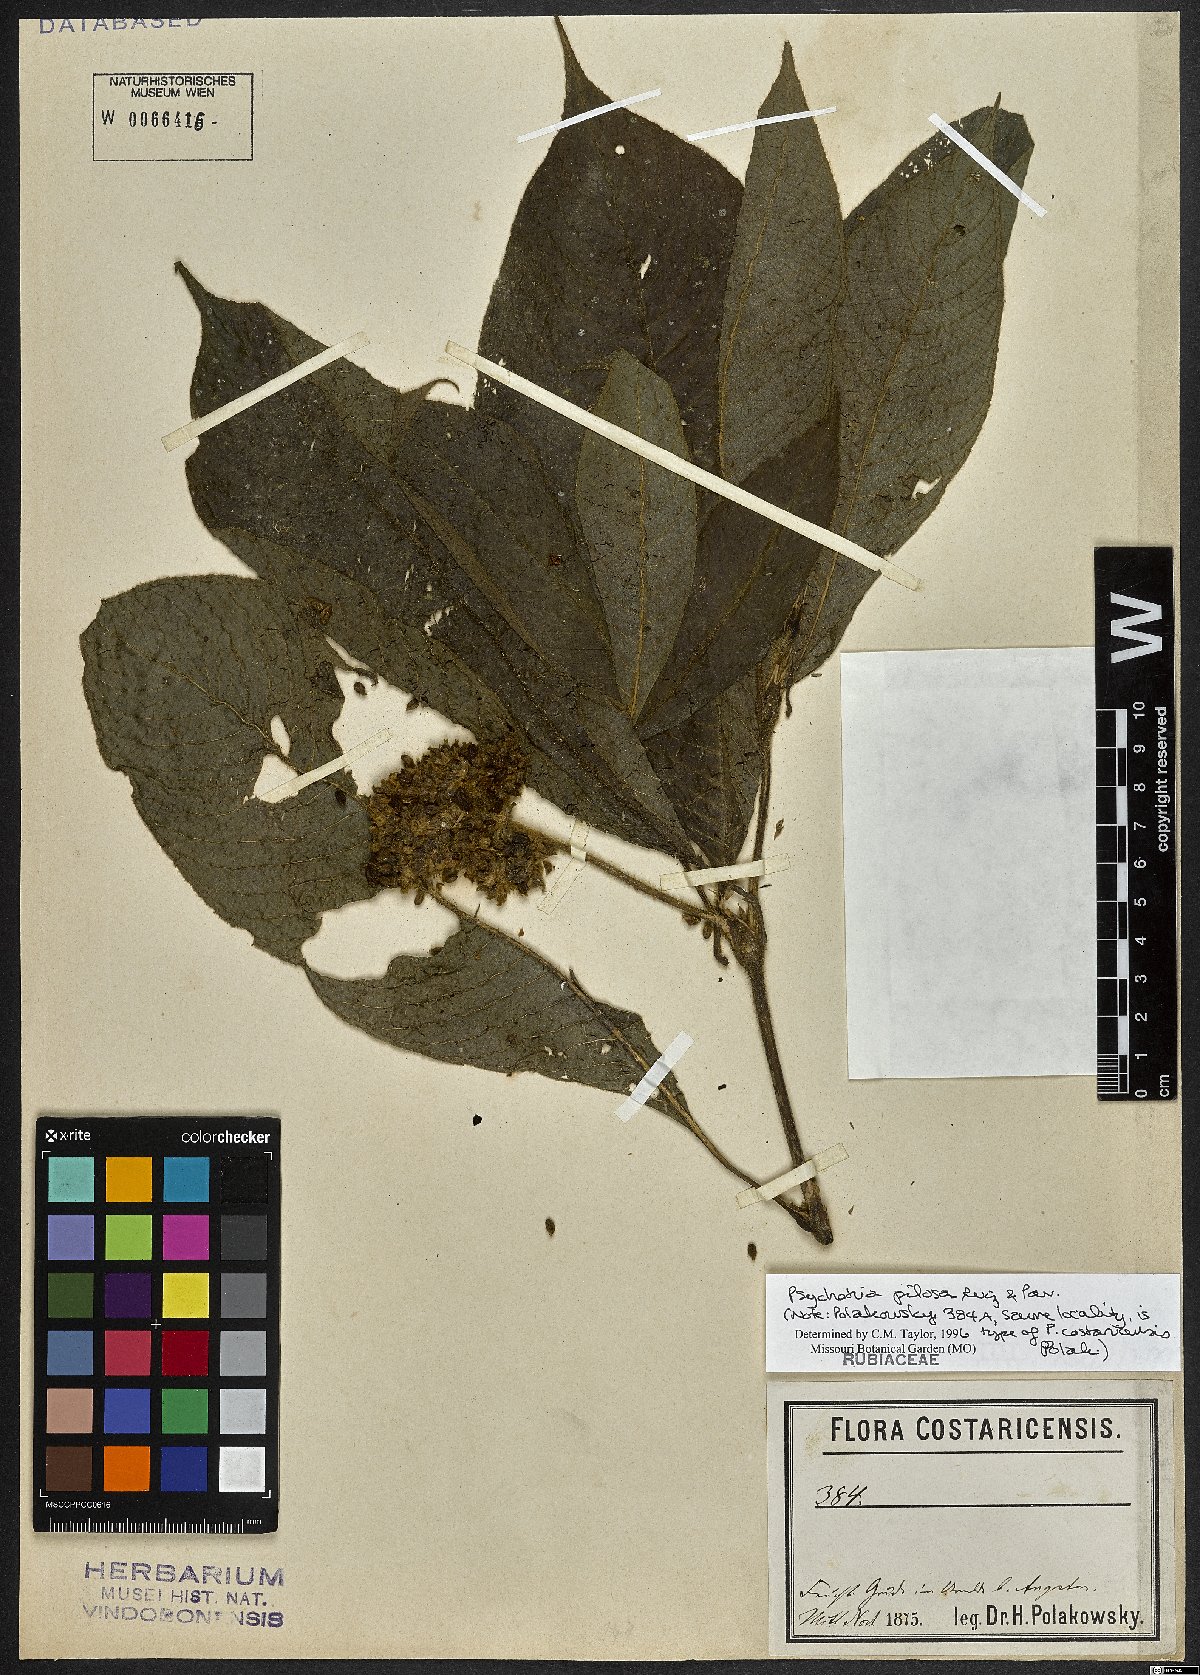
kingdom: Plantae
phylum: Tracheophyta
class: Magnoliopsida
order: Gentianales
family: Rubiaceae
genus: Palicourea
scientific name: Palicourea pilosa
